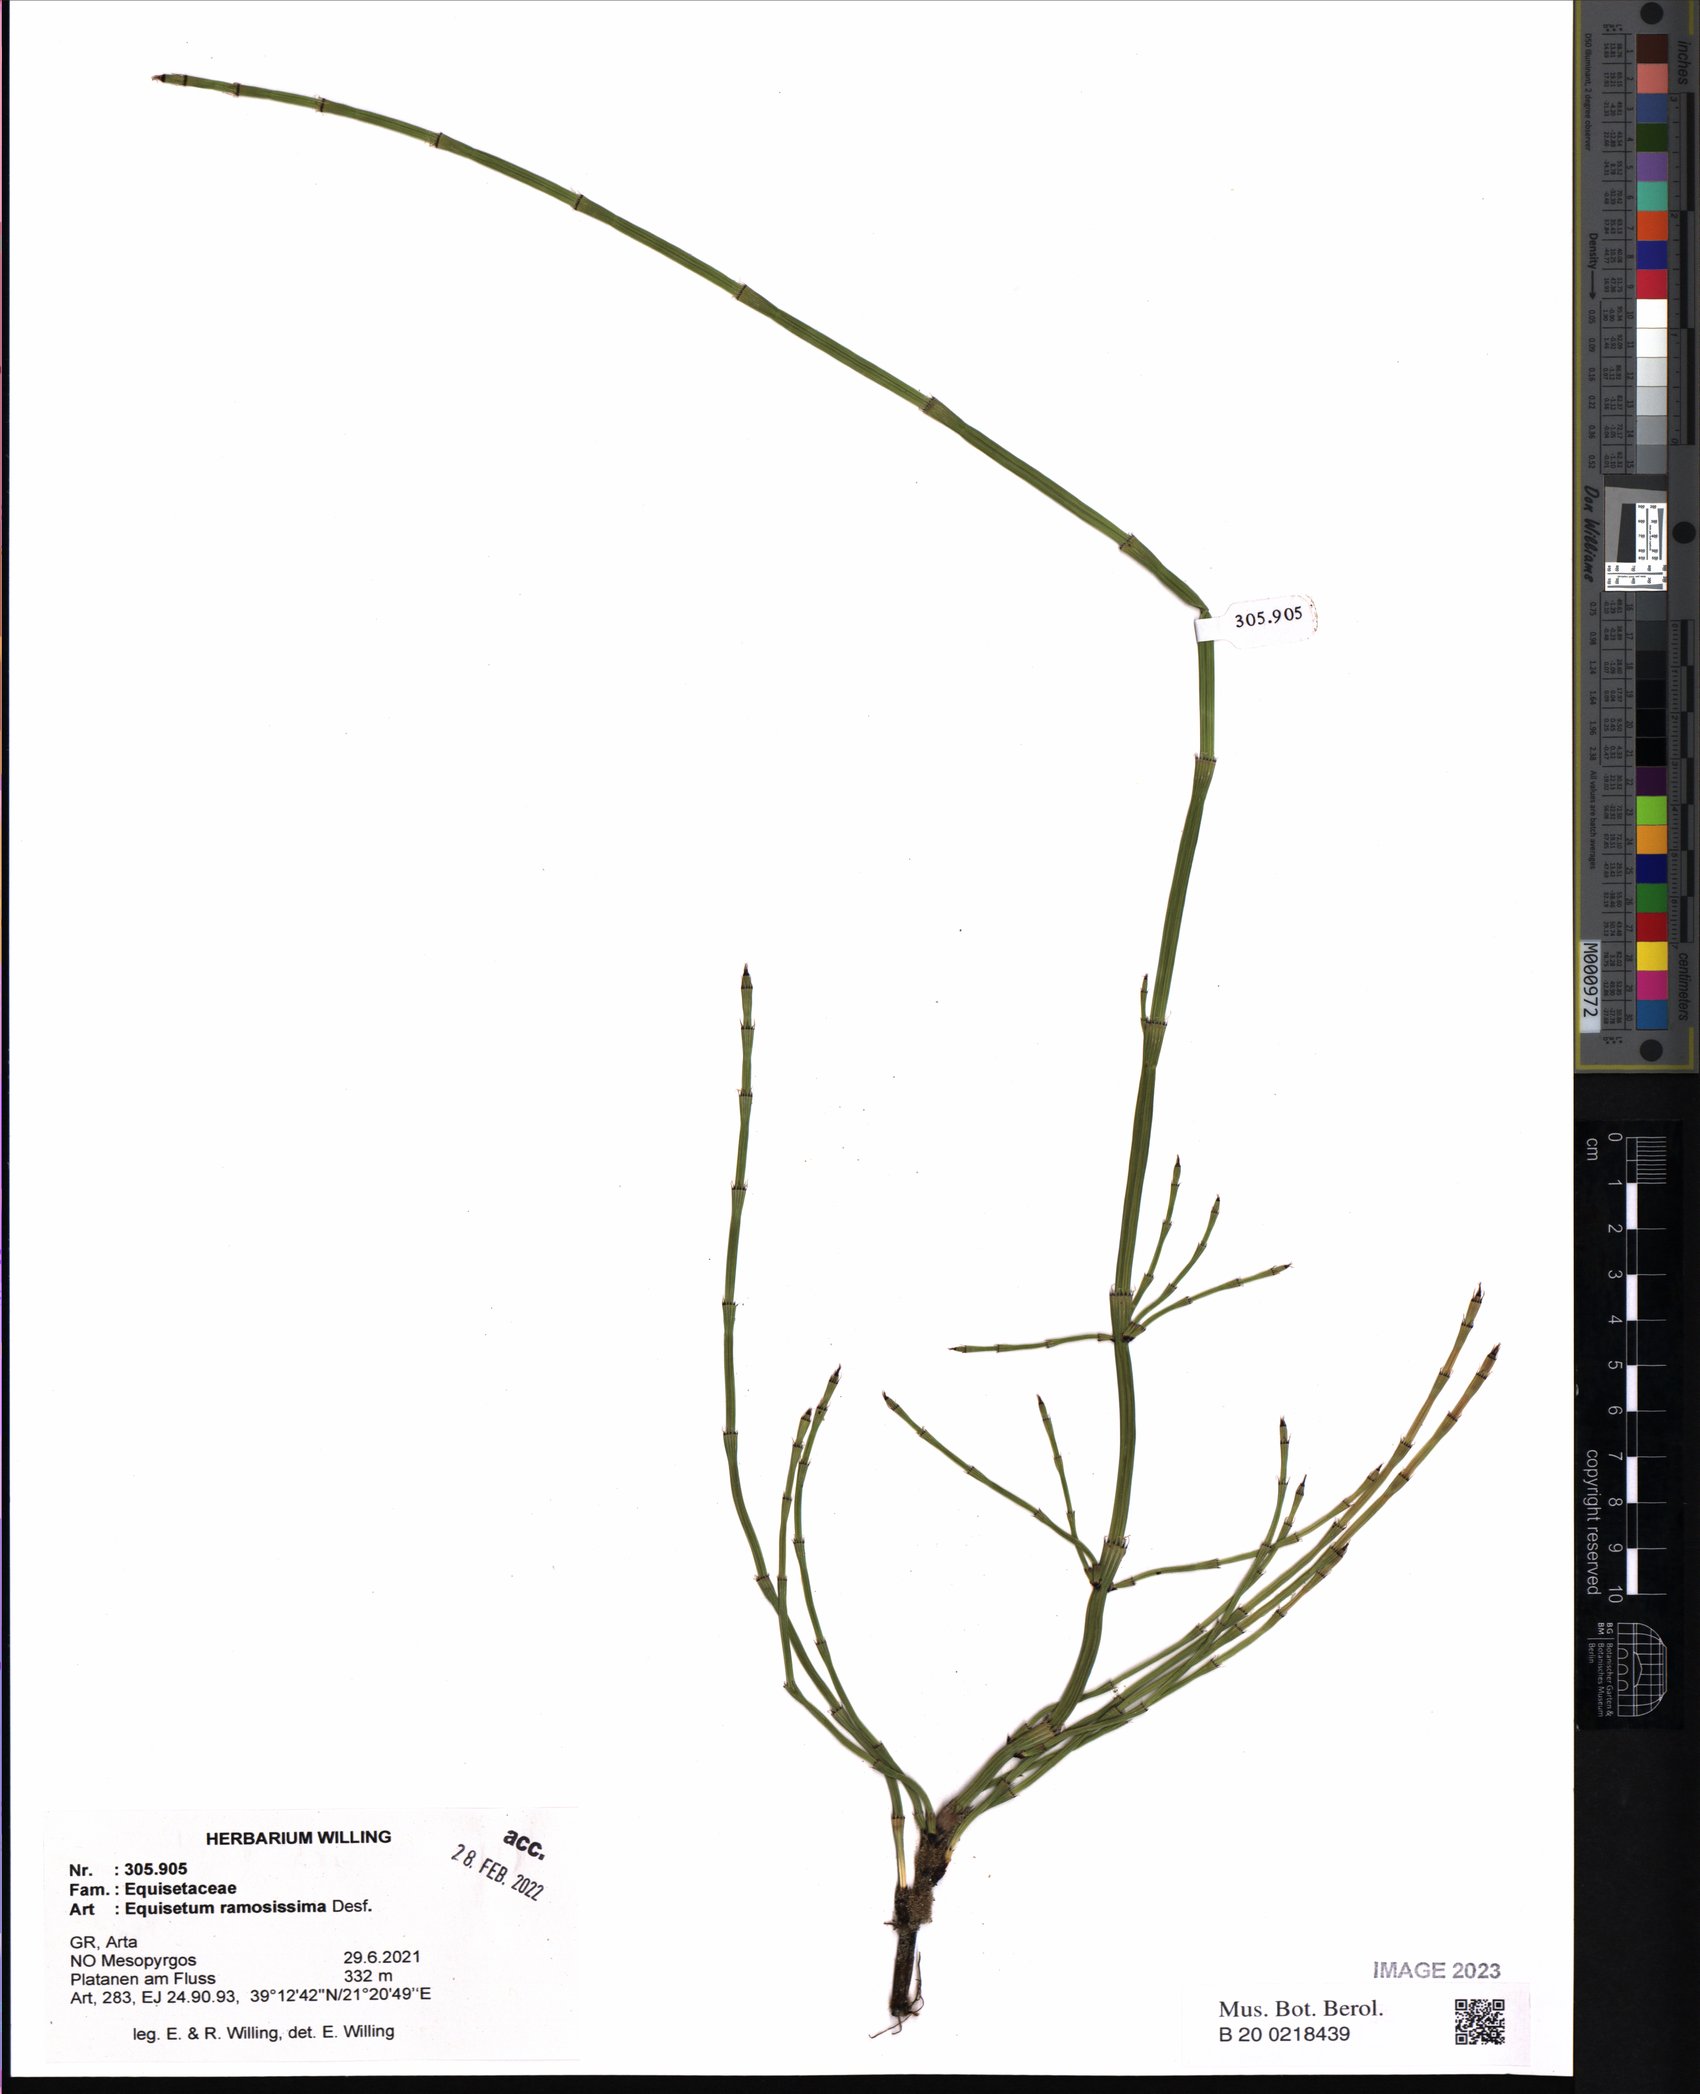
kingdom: Plantae
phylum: Tracheophyta
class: Polypodiopsida
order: Equisetales
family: Equisetaceae
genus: Equisetum
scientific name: Equisetum ramosissimum
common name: Branched horsetail
